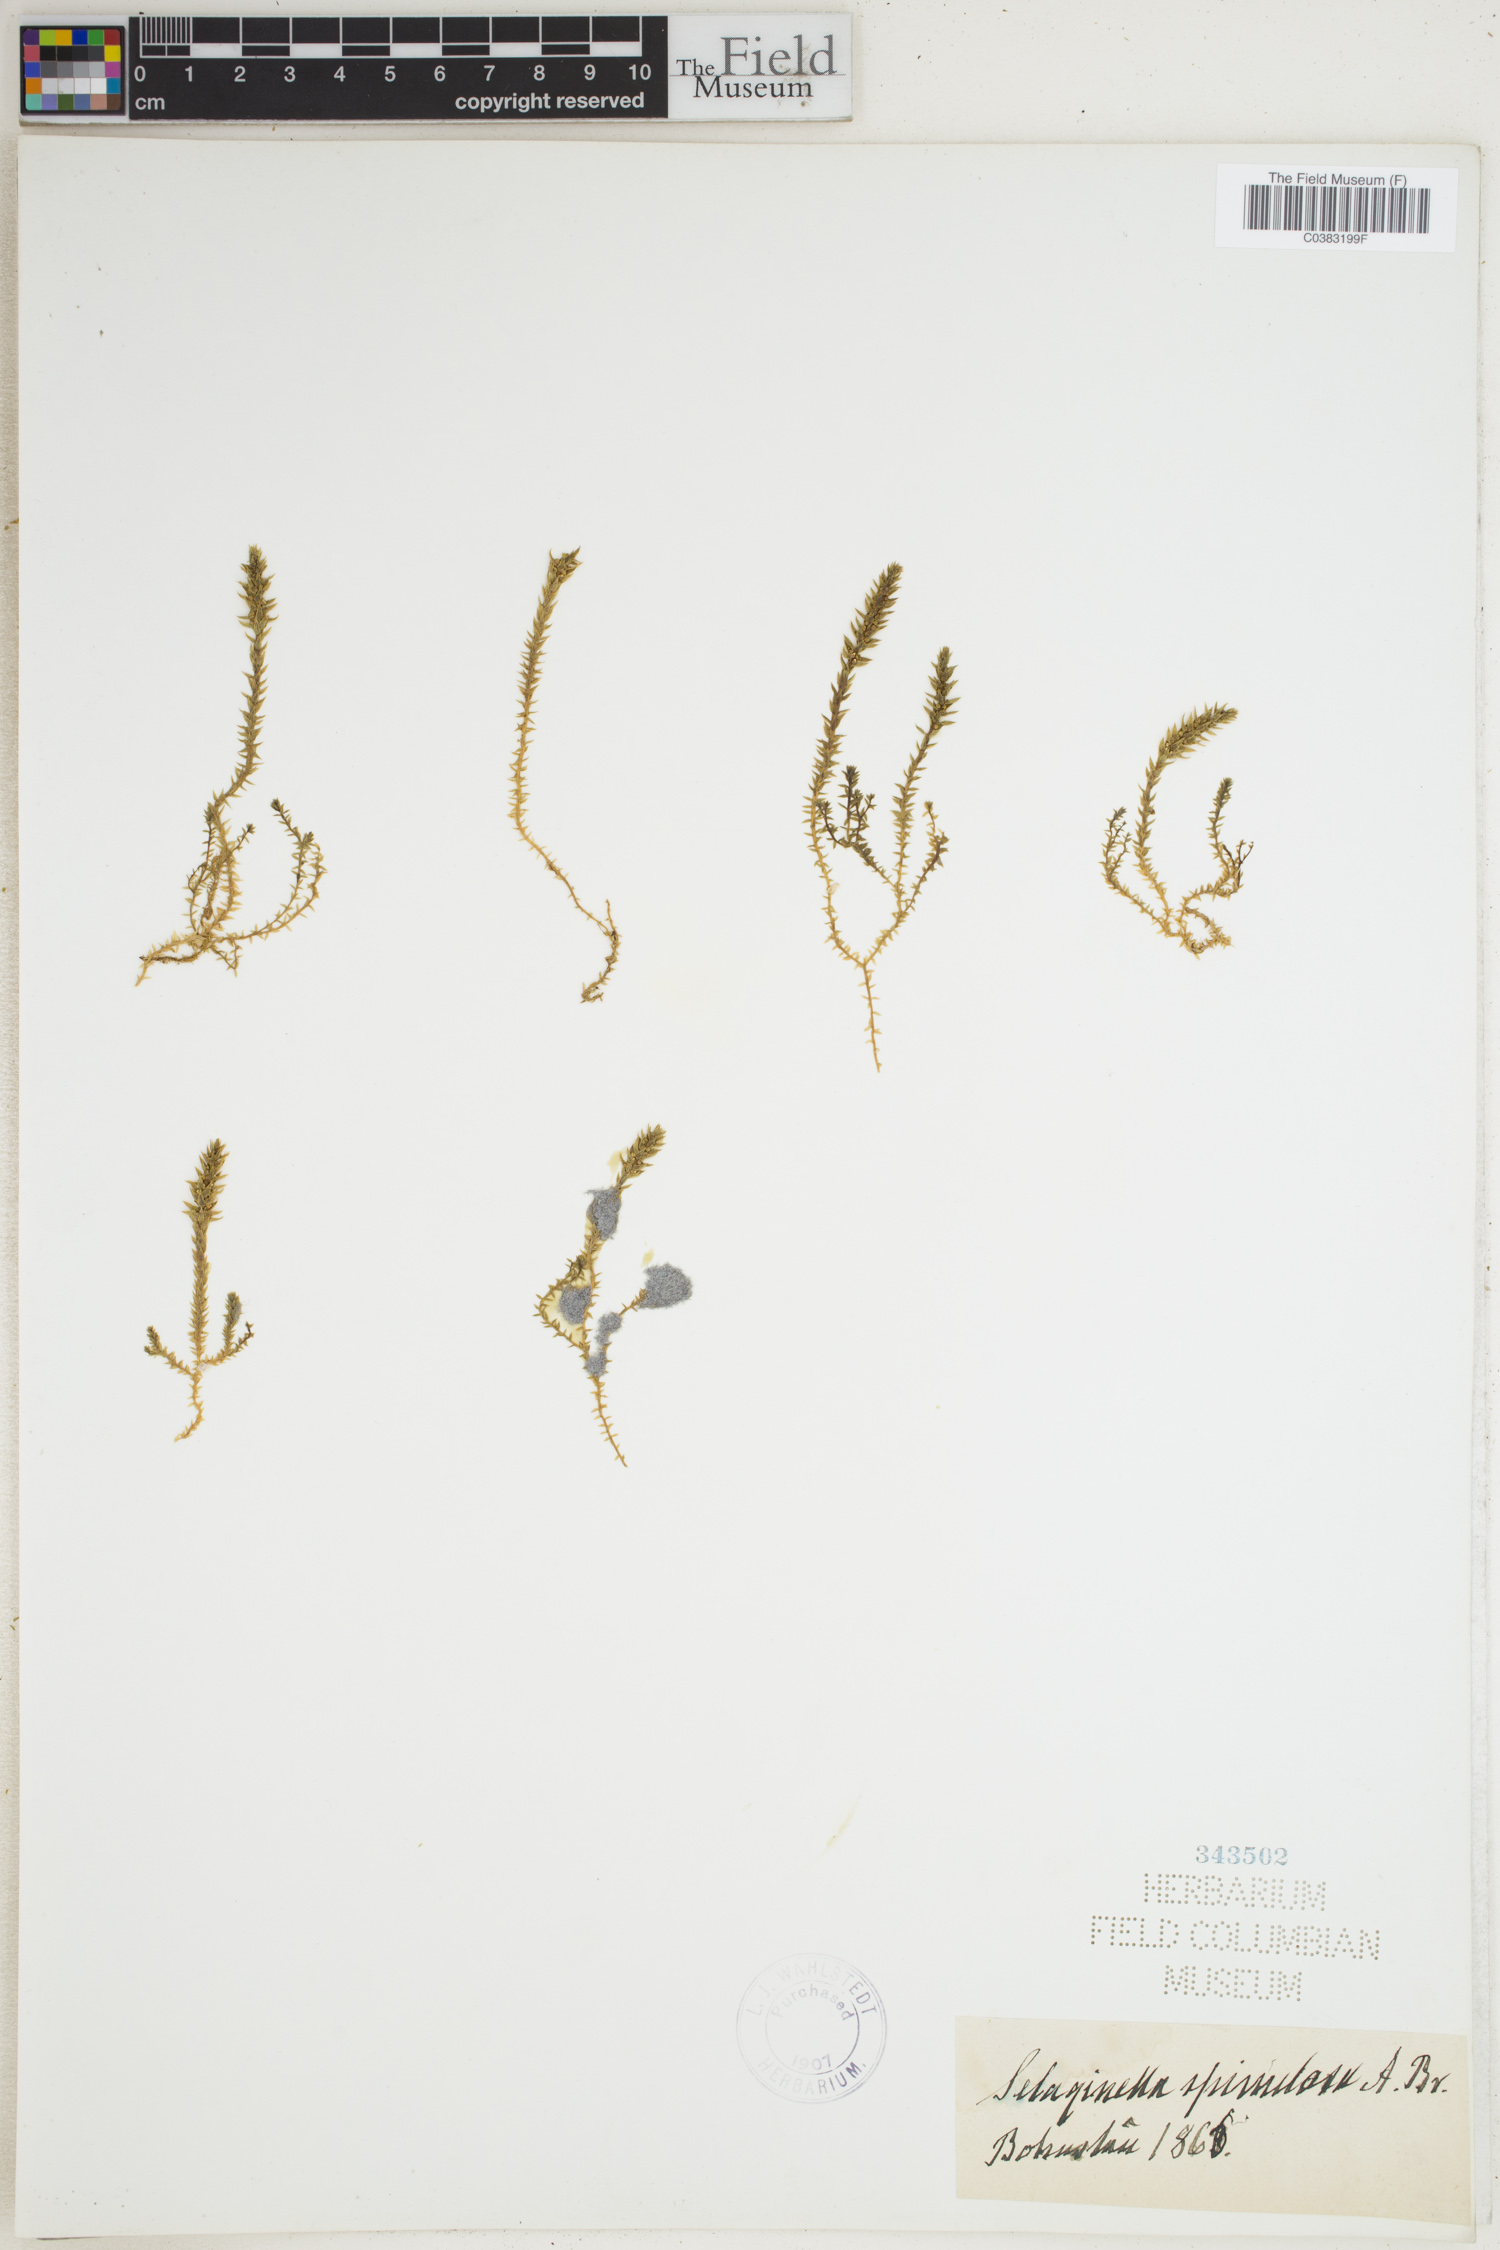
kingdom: Plantae
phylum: Tracheophyta
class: Lycopodiopsida
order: Selaginellales
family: Selaginellaceae
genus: Selaginella
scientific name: Selaginella selaginoides
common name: Prickly mountain-moss
